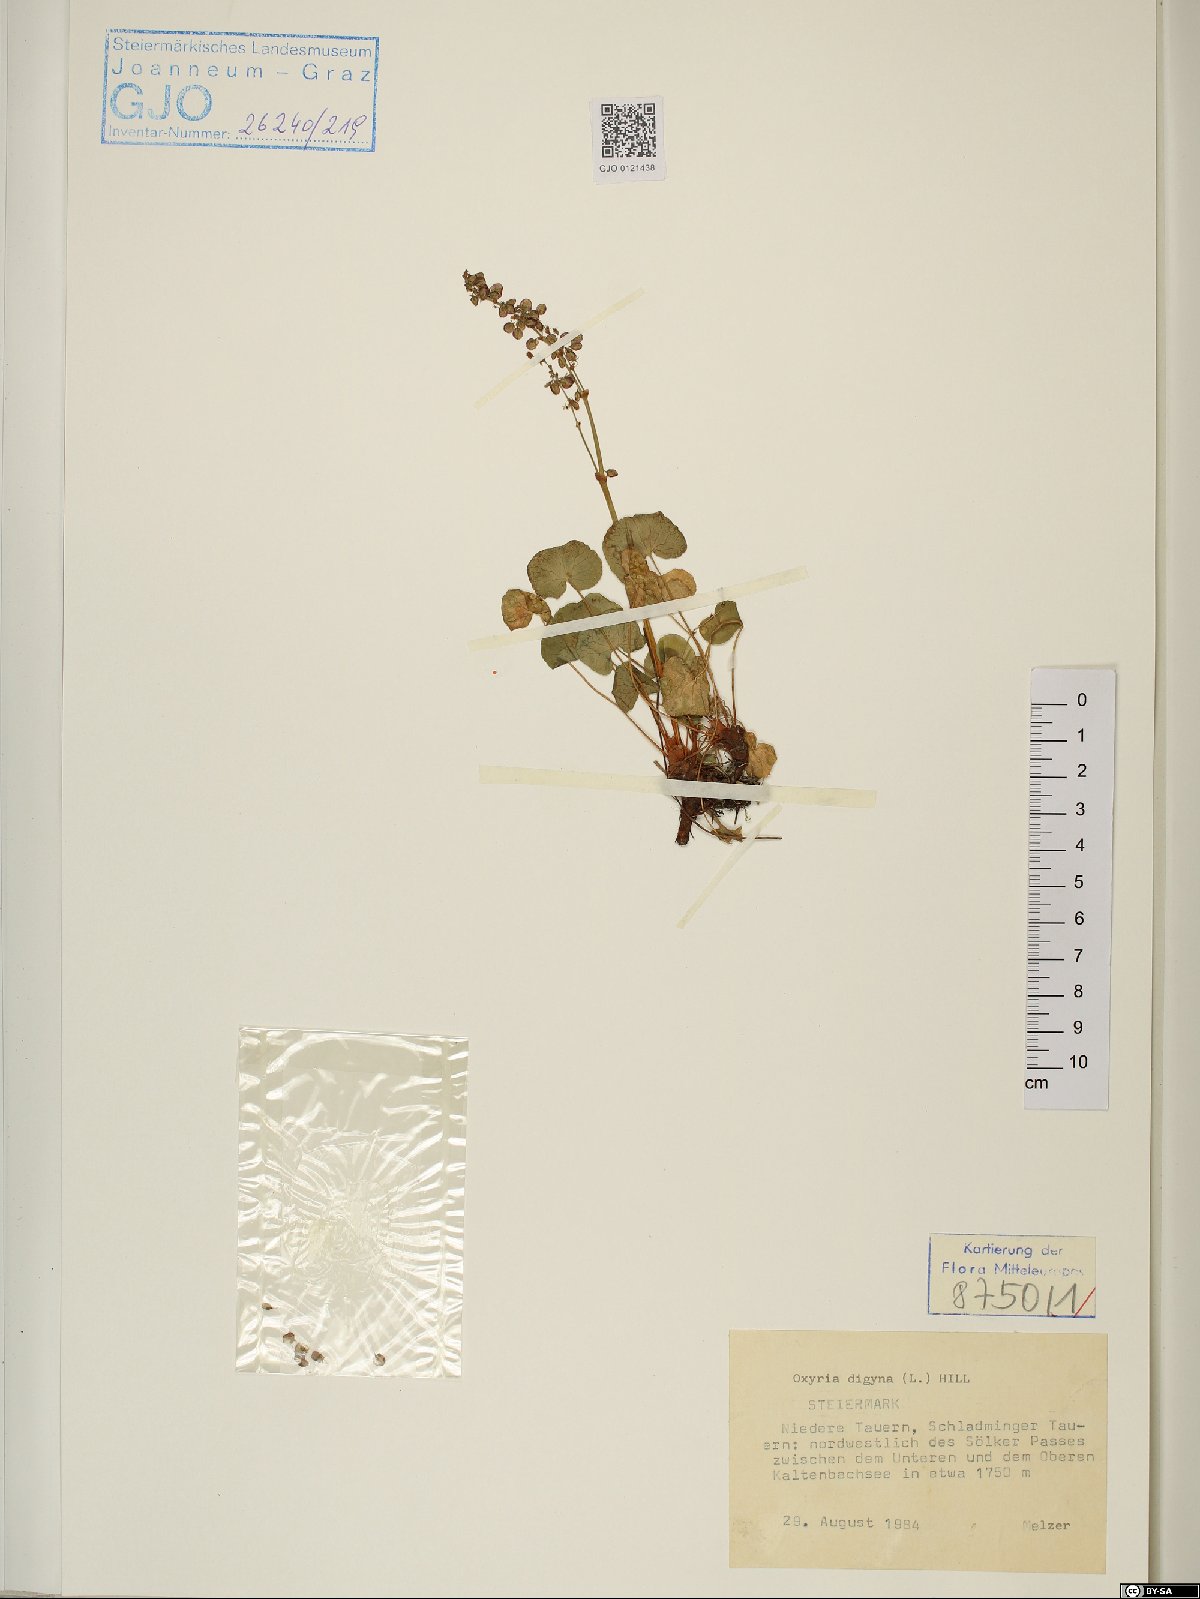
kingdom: Plantae
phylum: Tracheophyta
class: Magnoliopsida
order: Caryophyllales
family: Polygonaceae
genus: Oxyria
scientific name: Oxyria digyna
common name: Alpine mountain-sorrel
